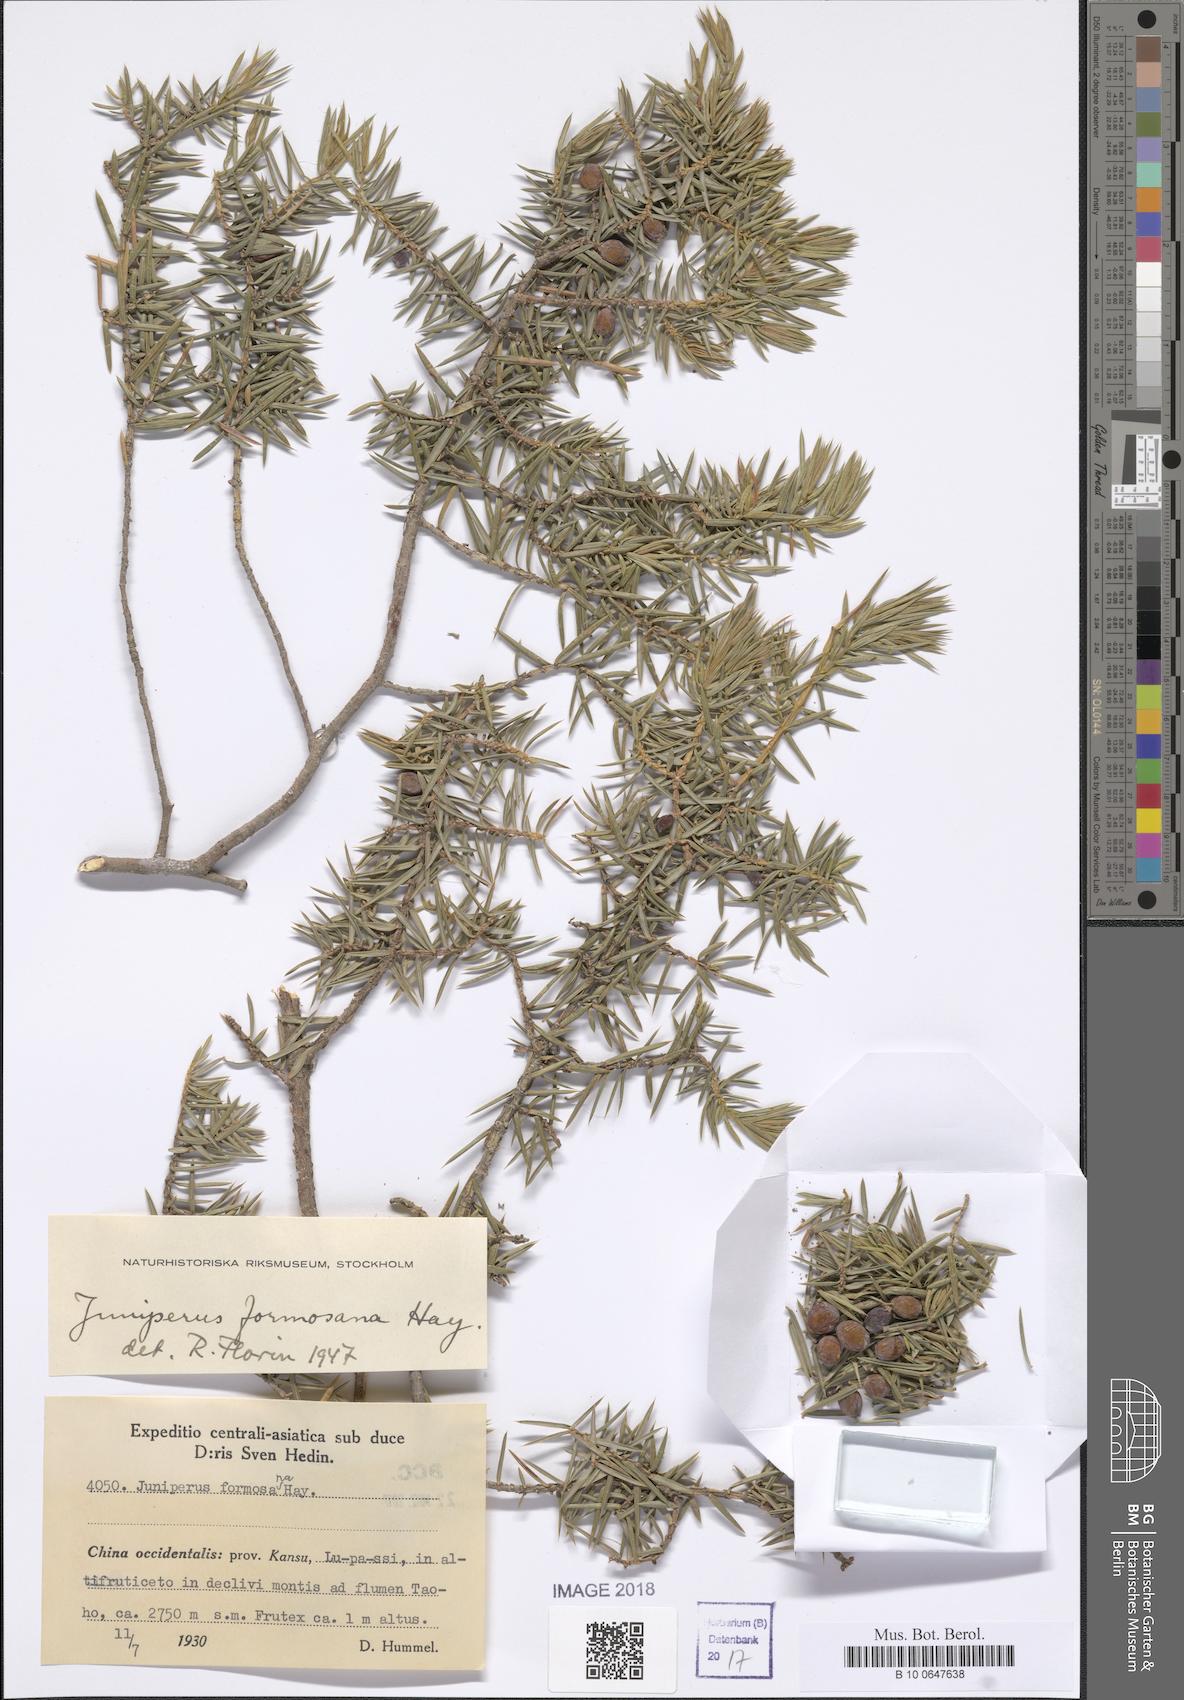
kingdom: Plantae
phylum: Tracheophyta
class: Pinopsida
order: Pinales
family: Cupressaceae
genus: Juniperus
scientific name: Juniperus formosana
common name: Formosan juniper
